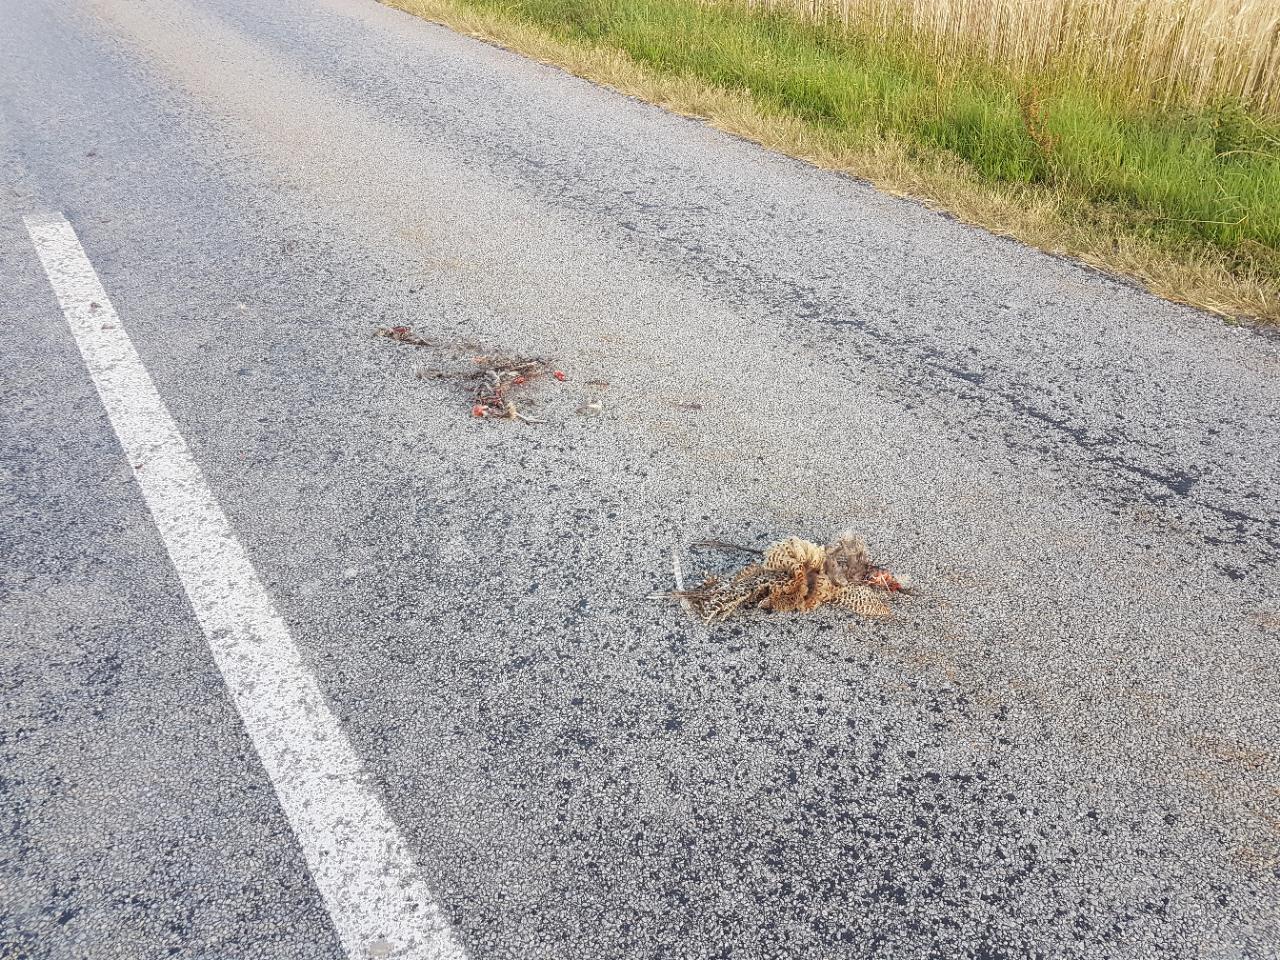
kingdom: Animalia
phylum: Chordata
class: Aves
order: Galliformes
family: Phasianidae
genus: Phasianus
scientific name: Phasianus colchicus
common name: Common pheasant
